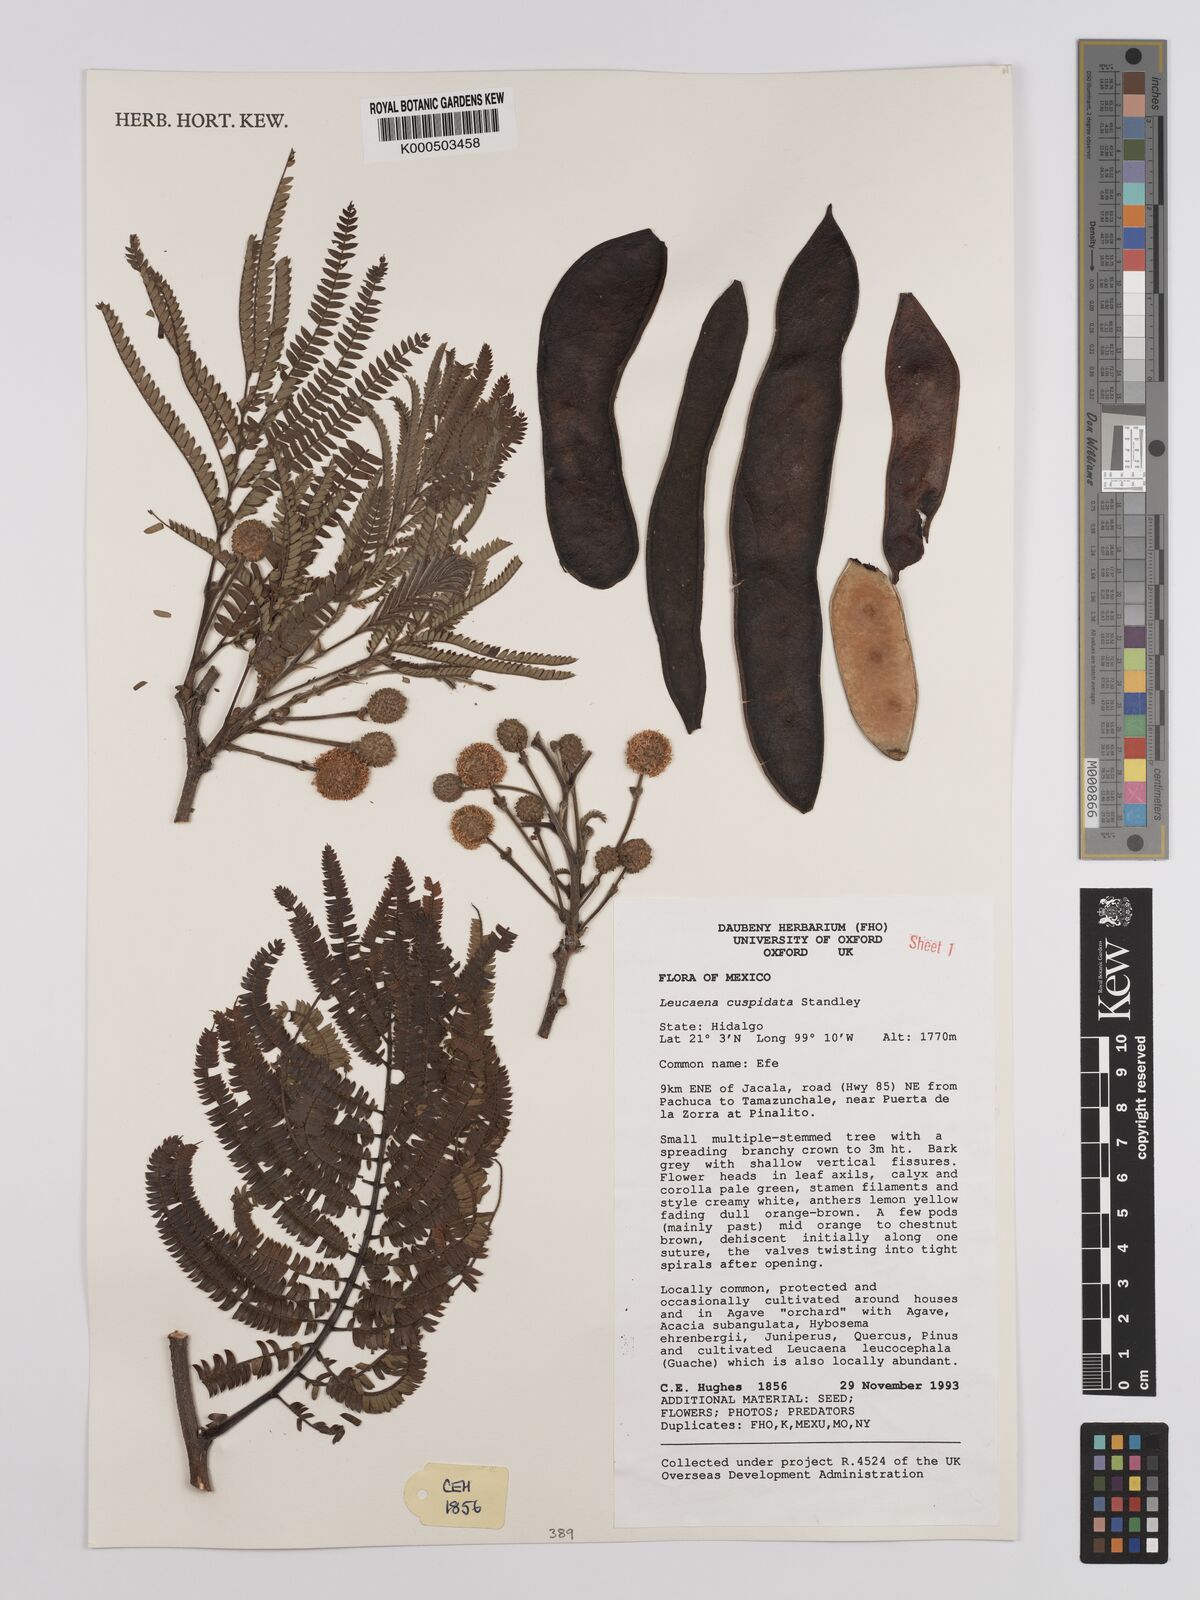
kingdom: Plantae
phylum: Tracheophyta
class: Magnoliopsida
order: Fabales
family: Fabaceae
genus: Leucaena
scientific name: Leucaena cuspidata
